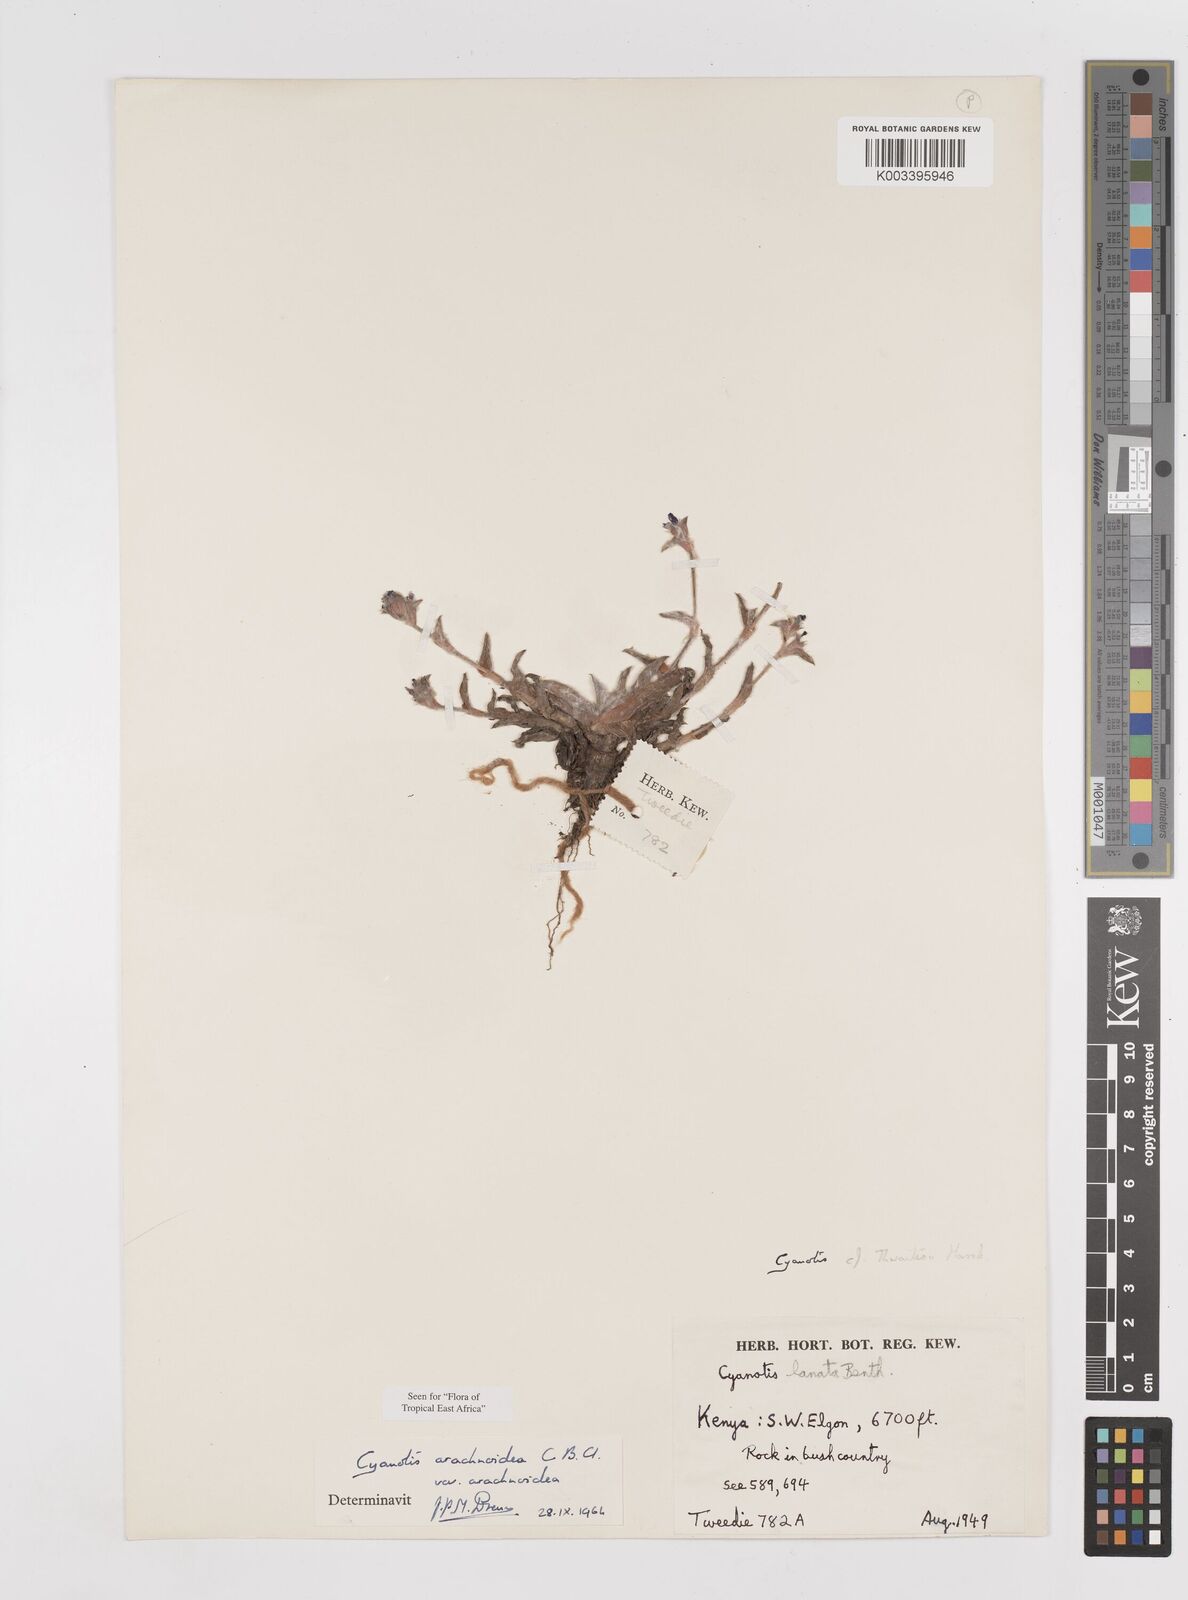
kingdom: Plantae
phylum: Tracheophyta
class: Liliopsida
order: Commelinales
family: Commelinaceae
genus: Cyanotis
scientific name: Cyanotis arachnoidea
